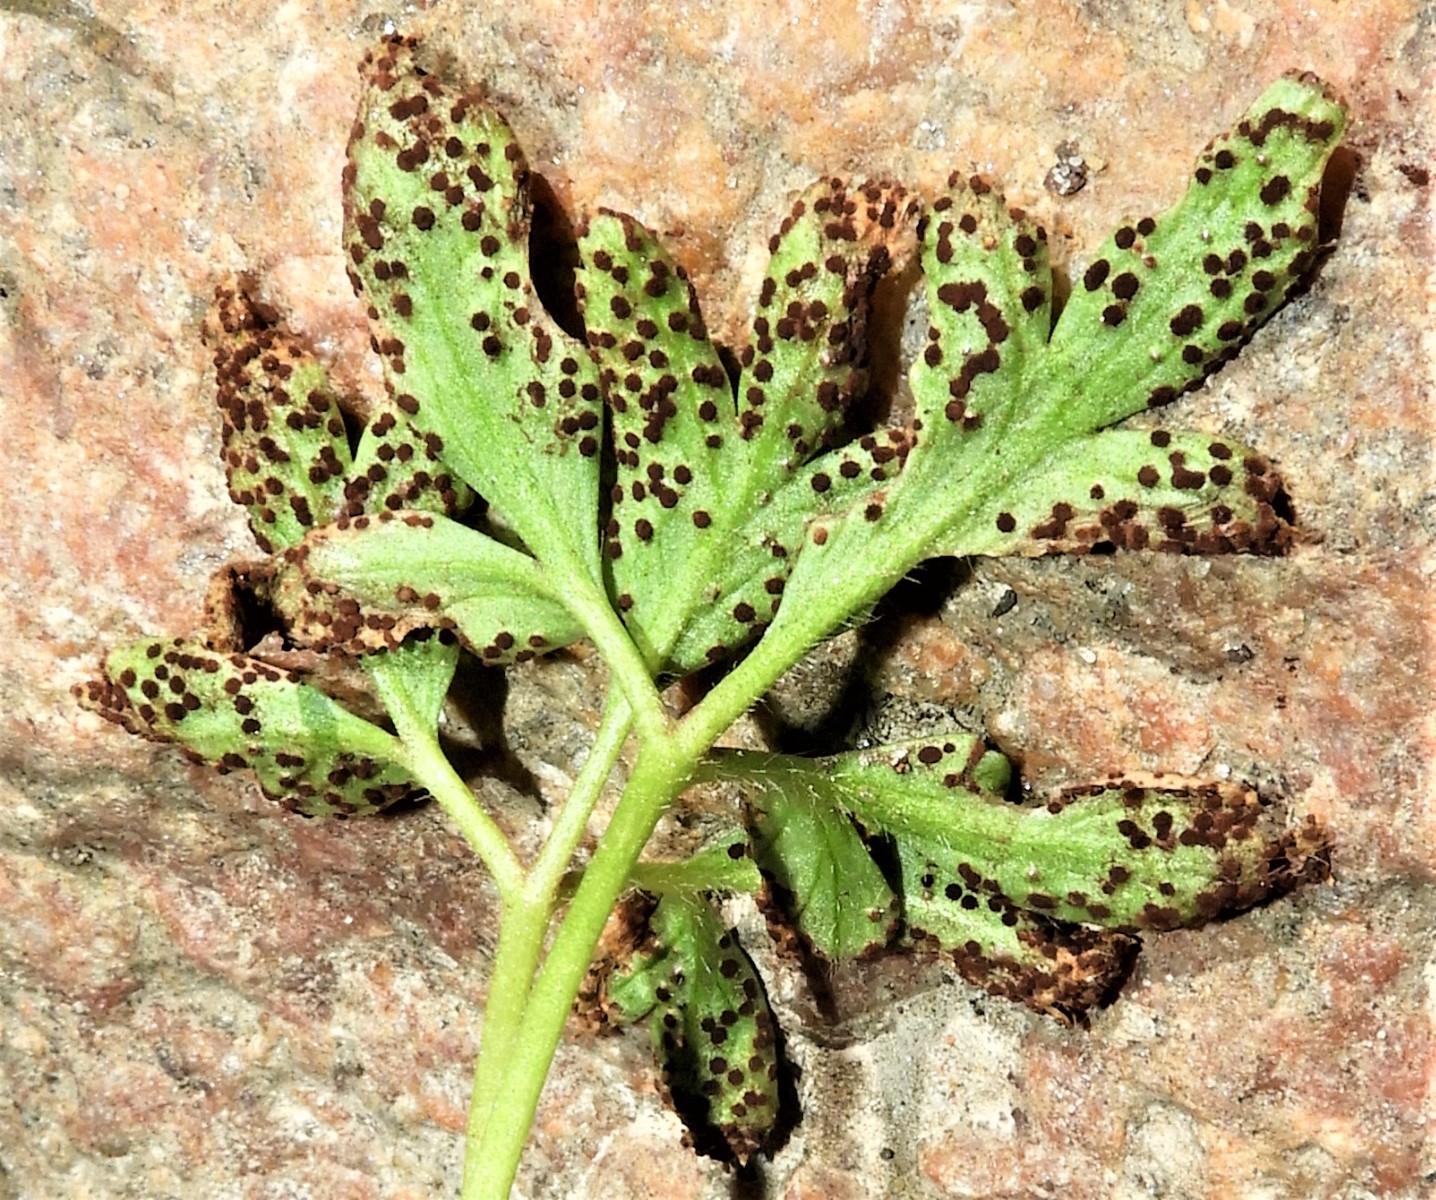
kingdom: Fungi
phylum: Basidiomycota
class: Pucciniomycetes
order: Pucciniales
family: Tranzscheliaceae
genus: Tranzschelia
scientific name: Tranzschelia anemones
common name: anemone-knæksporerust
